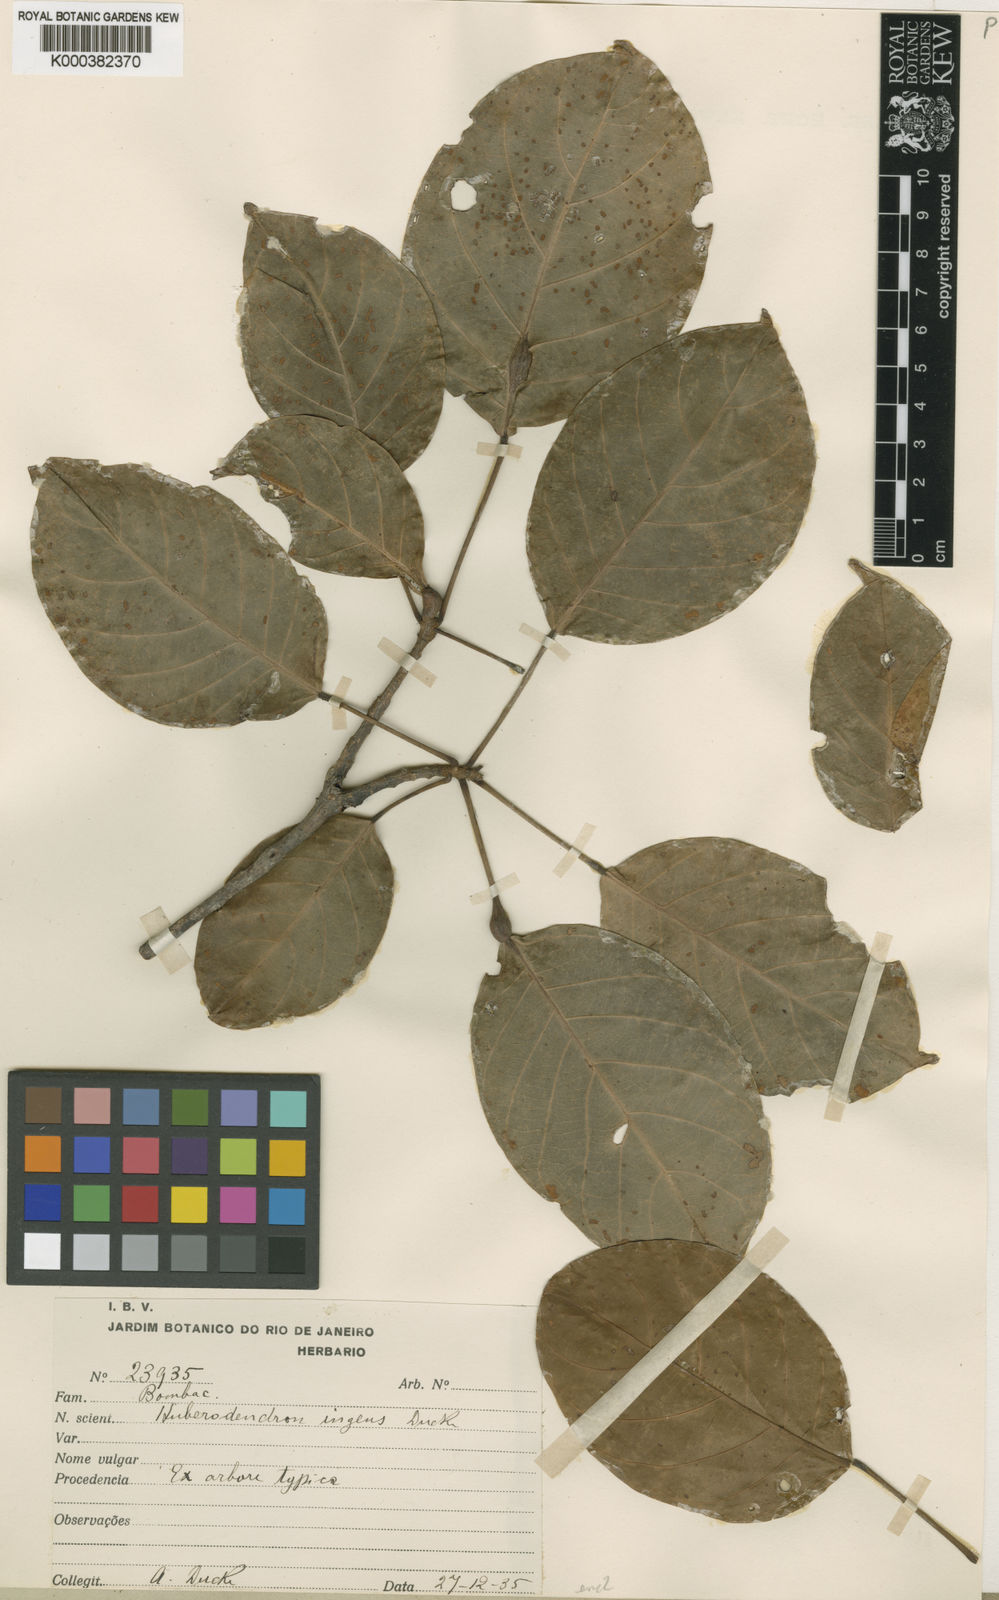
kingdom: Plantae
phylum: Tracheophyta
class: Magnoliopsida
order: Malvales
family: Malvaceae
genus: Huberodendron
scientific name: Huberodendron ingens
